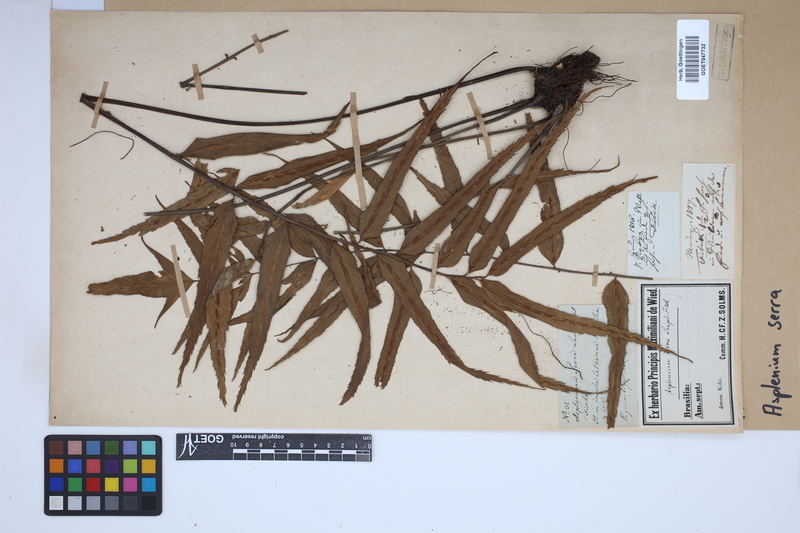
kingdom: Plantae
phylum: Tracheophyta
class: Polypodiopsida
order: Polypodiales
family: Aspleniaceae
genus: Asplenium
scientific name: Asplenium serra
